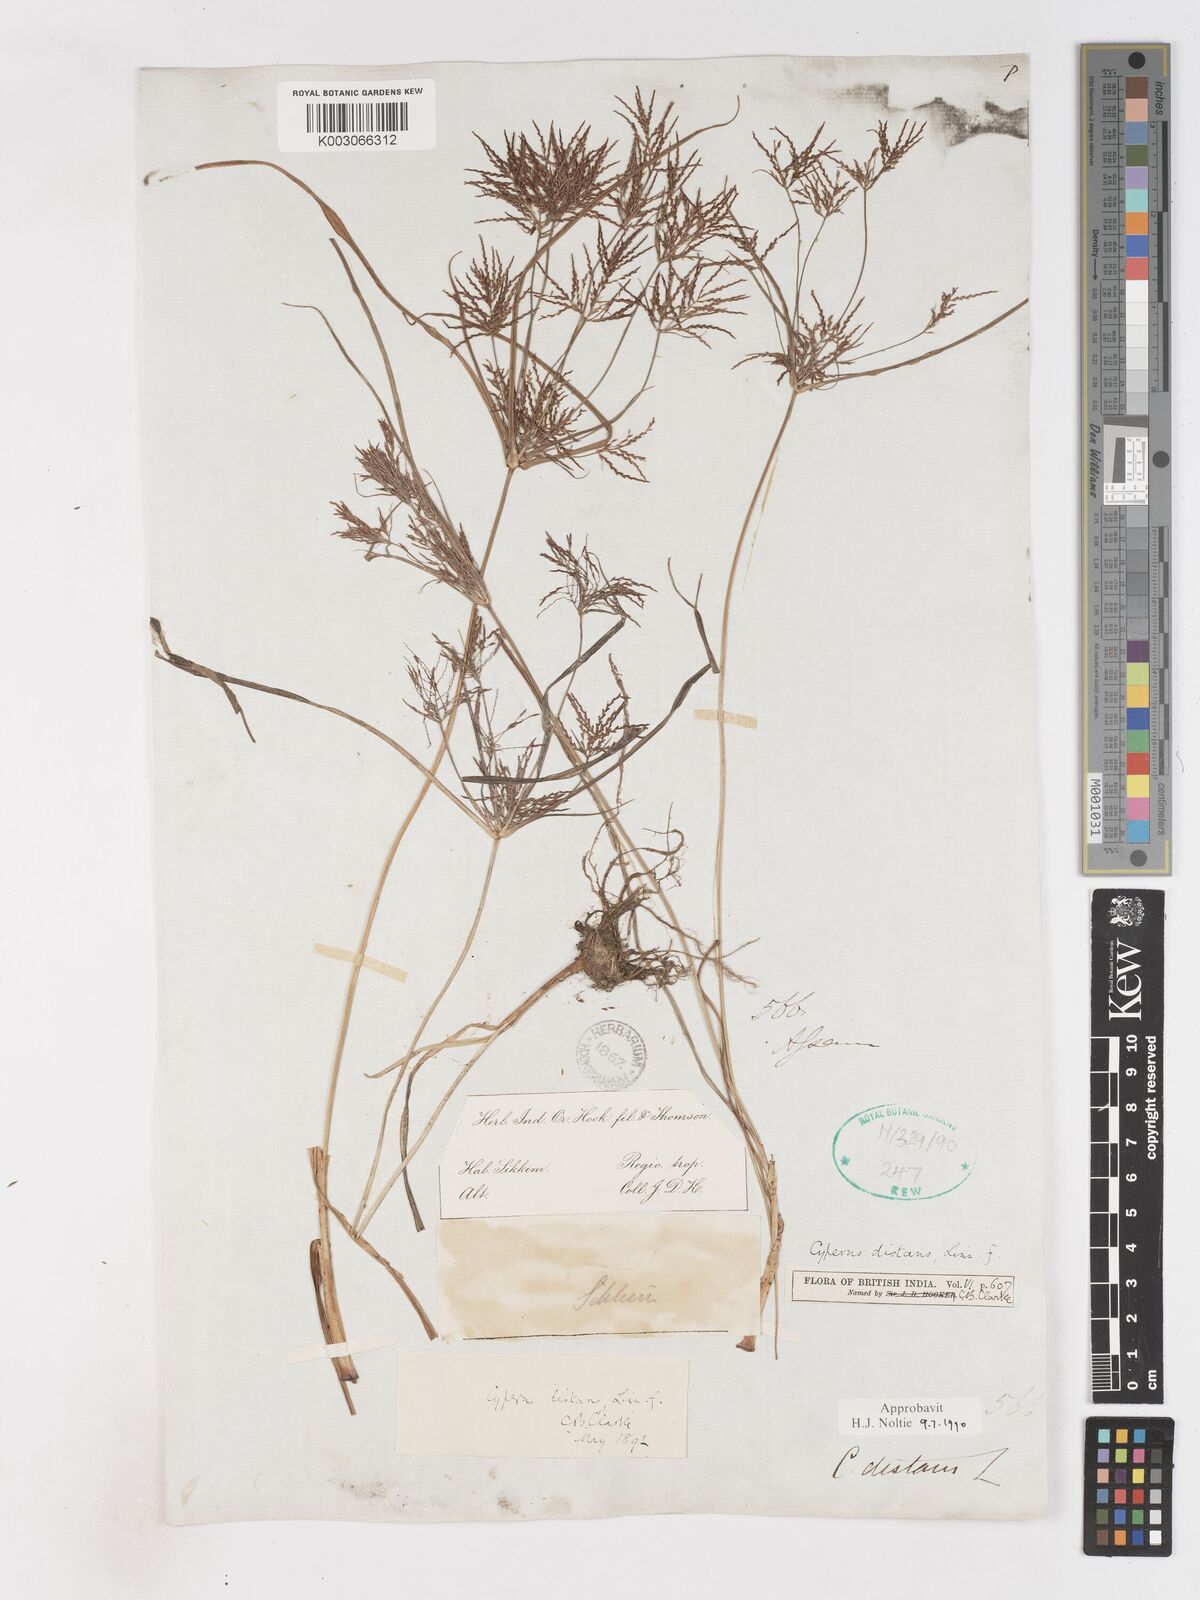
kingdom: Plantae
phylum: Tracheophyta
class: Liliopsida
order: Poales
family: Cyperaceae
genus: Cyperus
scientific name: Cyperus distans
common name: Slender cyperus
